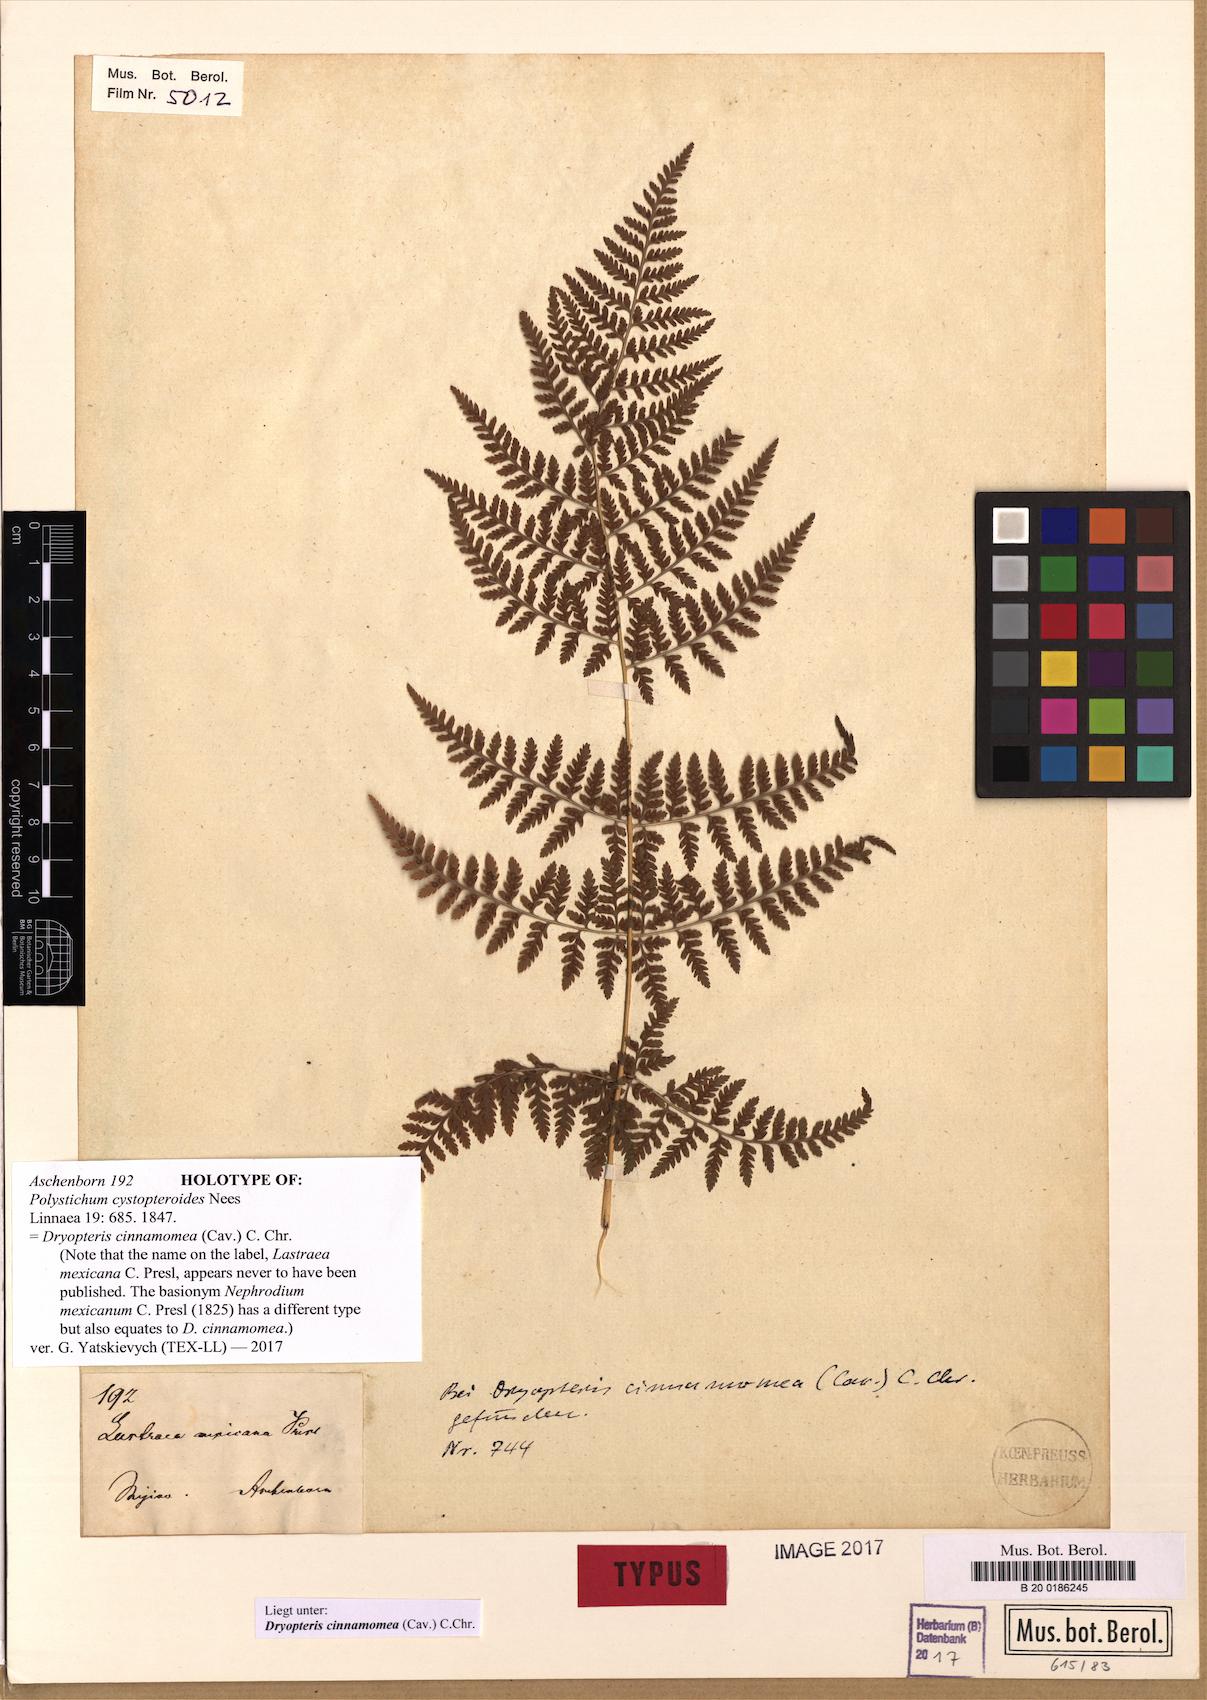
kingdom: Plantae
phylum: Tracheophyta
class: Polypodiopsida
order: Polypodiales
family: Dryopteridaceae
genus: Dryopteris
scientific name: Dryopteris cinnamomea
